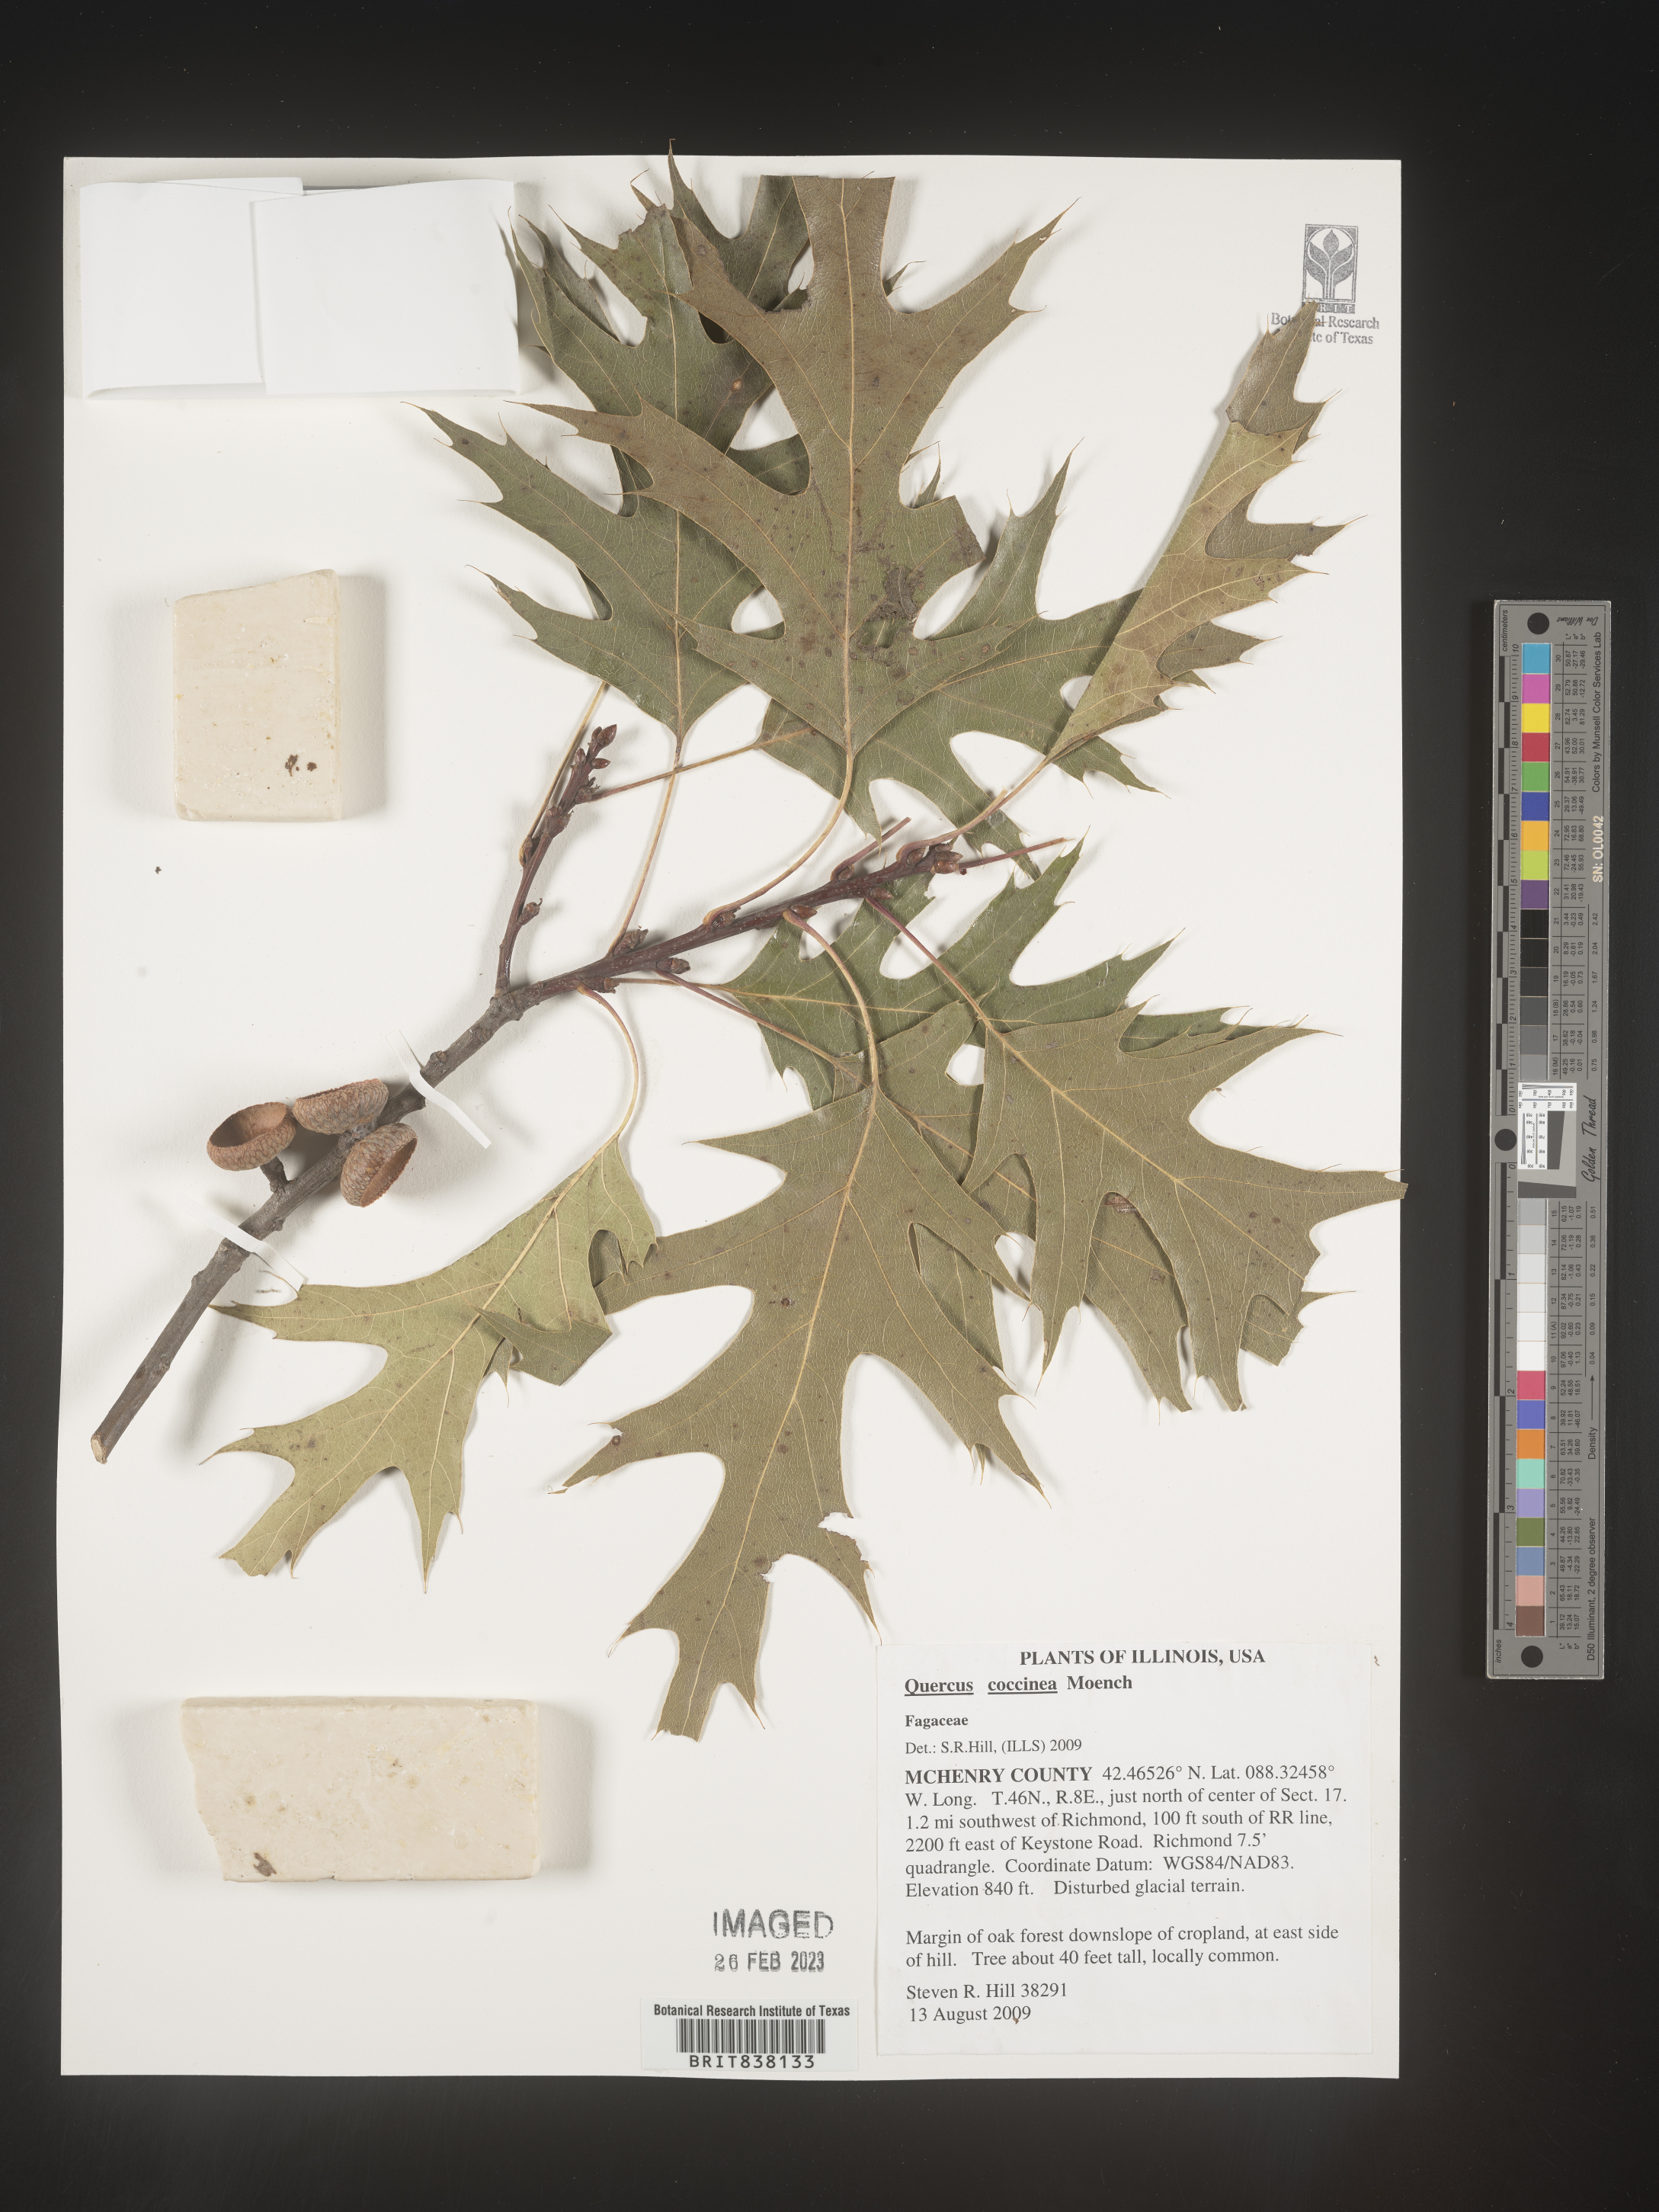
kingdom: Plantae
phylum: Tracheophyta
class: Magnoliopsida
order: Fagales
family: Fagaceae
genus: Quercus
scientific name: Quercus coccinea
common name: Scarlet oak
